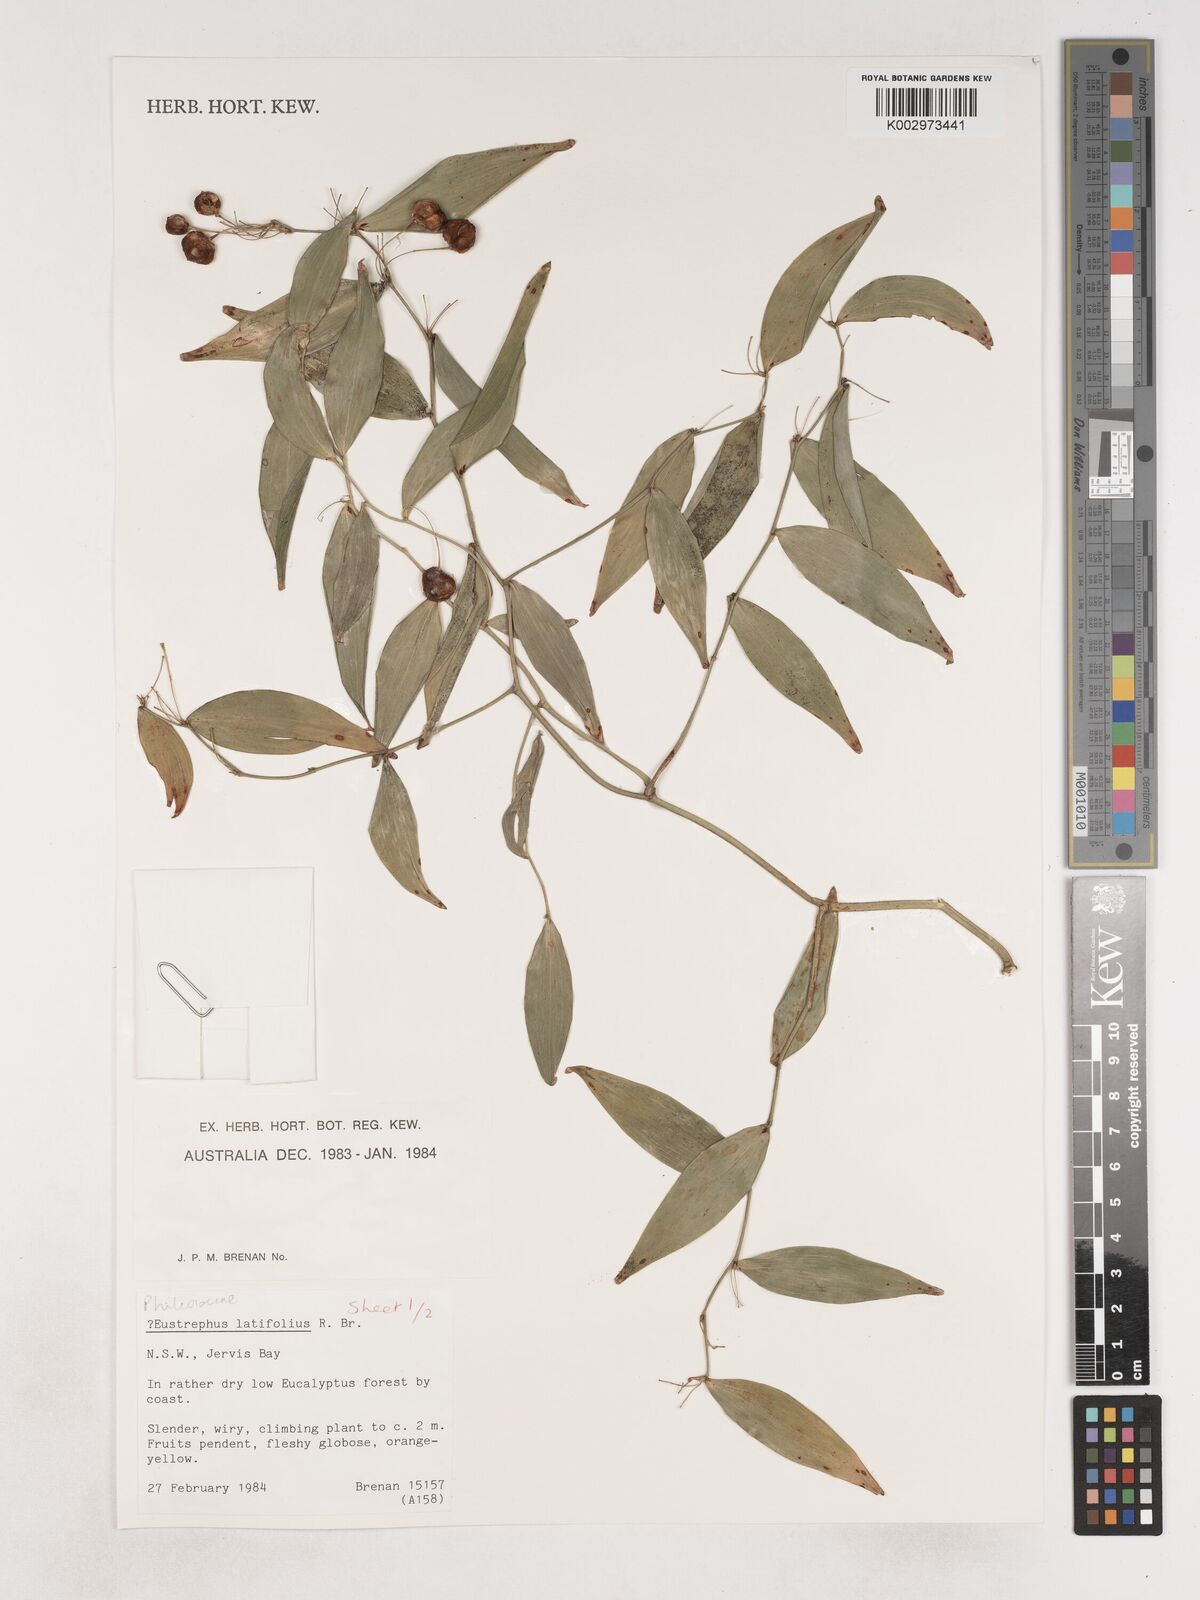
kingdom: Plantae
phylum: Tracheophyta
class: Liliopsida
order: Asparagales
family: Asparagaceae
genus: Eustrephus
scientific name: Eustrephus latifolius
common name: Orangevine
